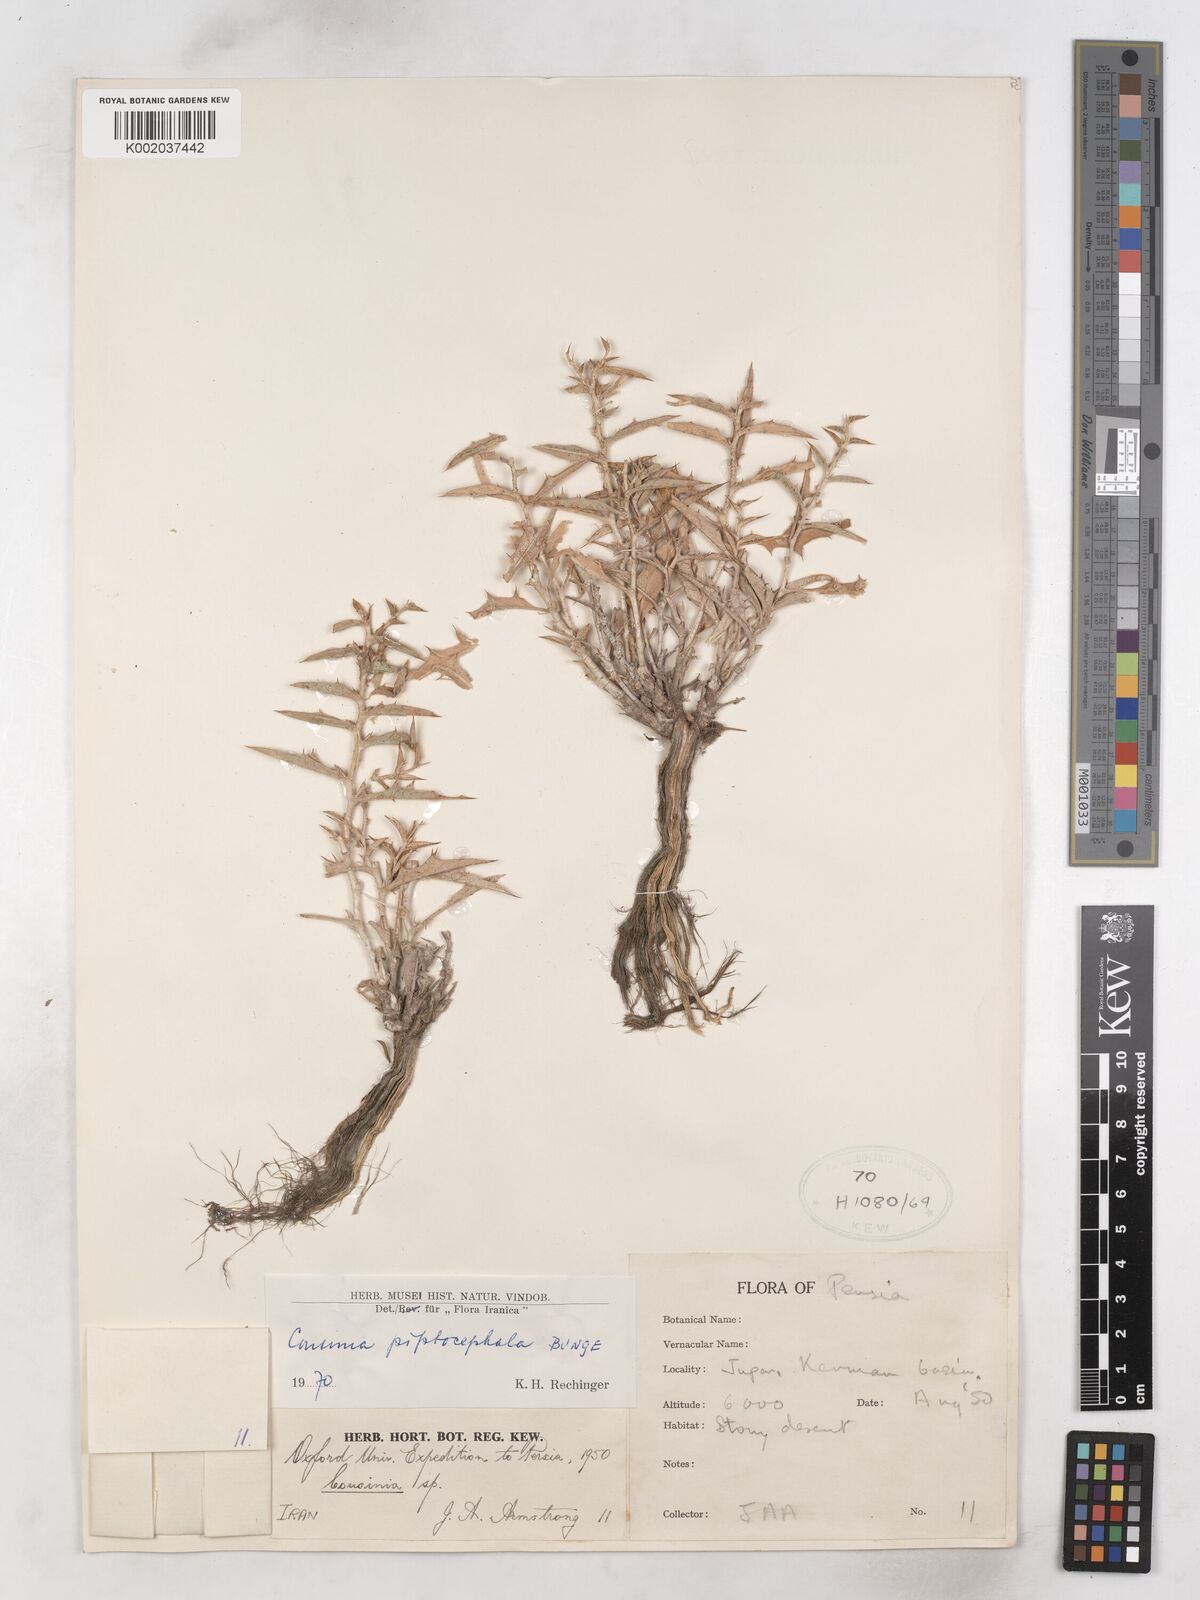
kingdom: Plantae
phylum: Tracheophyta
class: Magnoliopsida
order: Asterales
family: Asteraceae
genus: Cousinia
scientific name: Cousinia piptocephala
